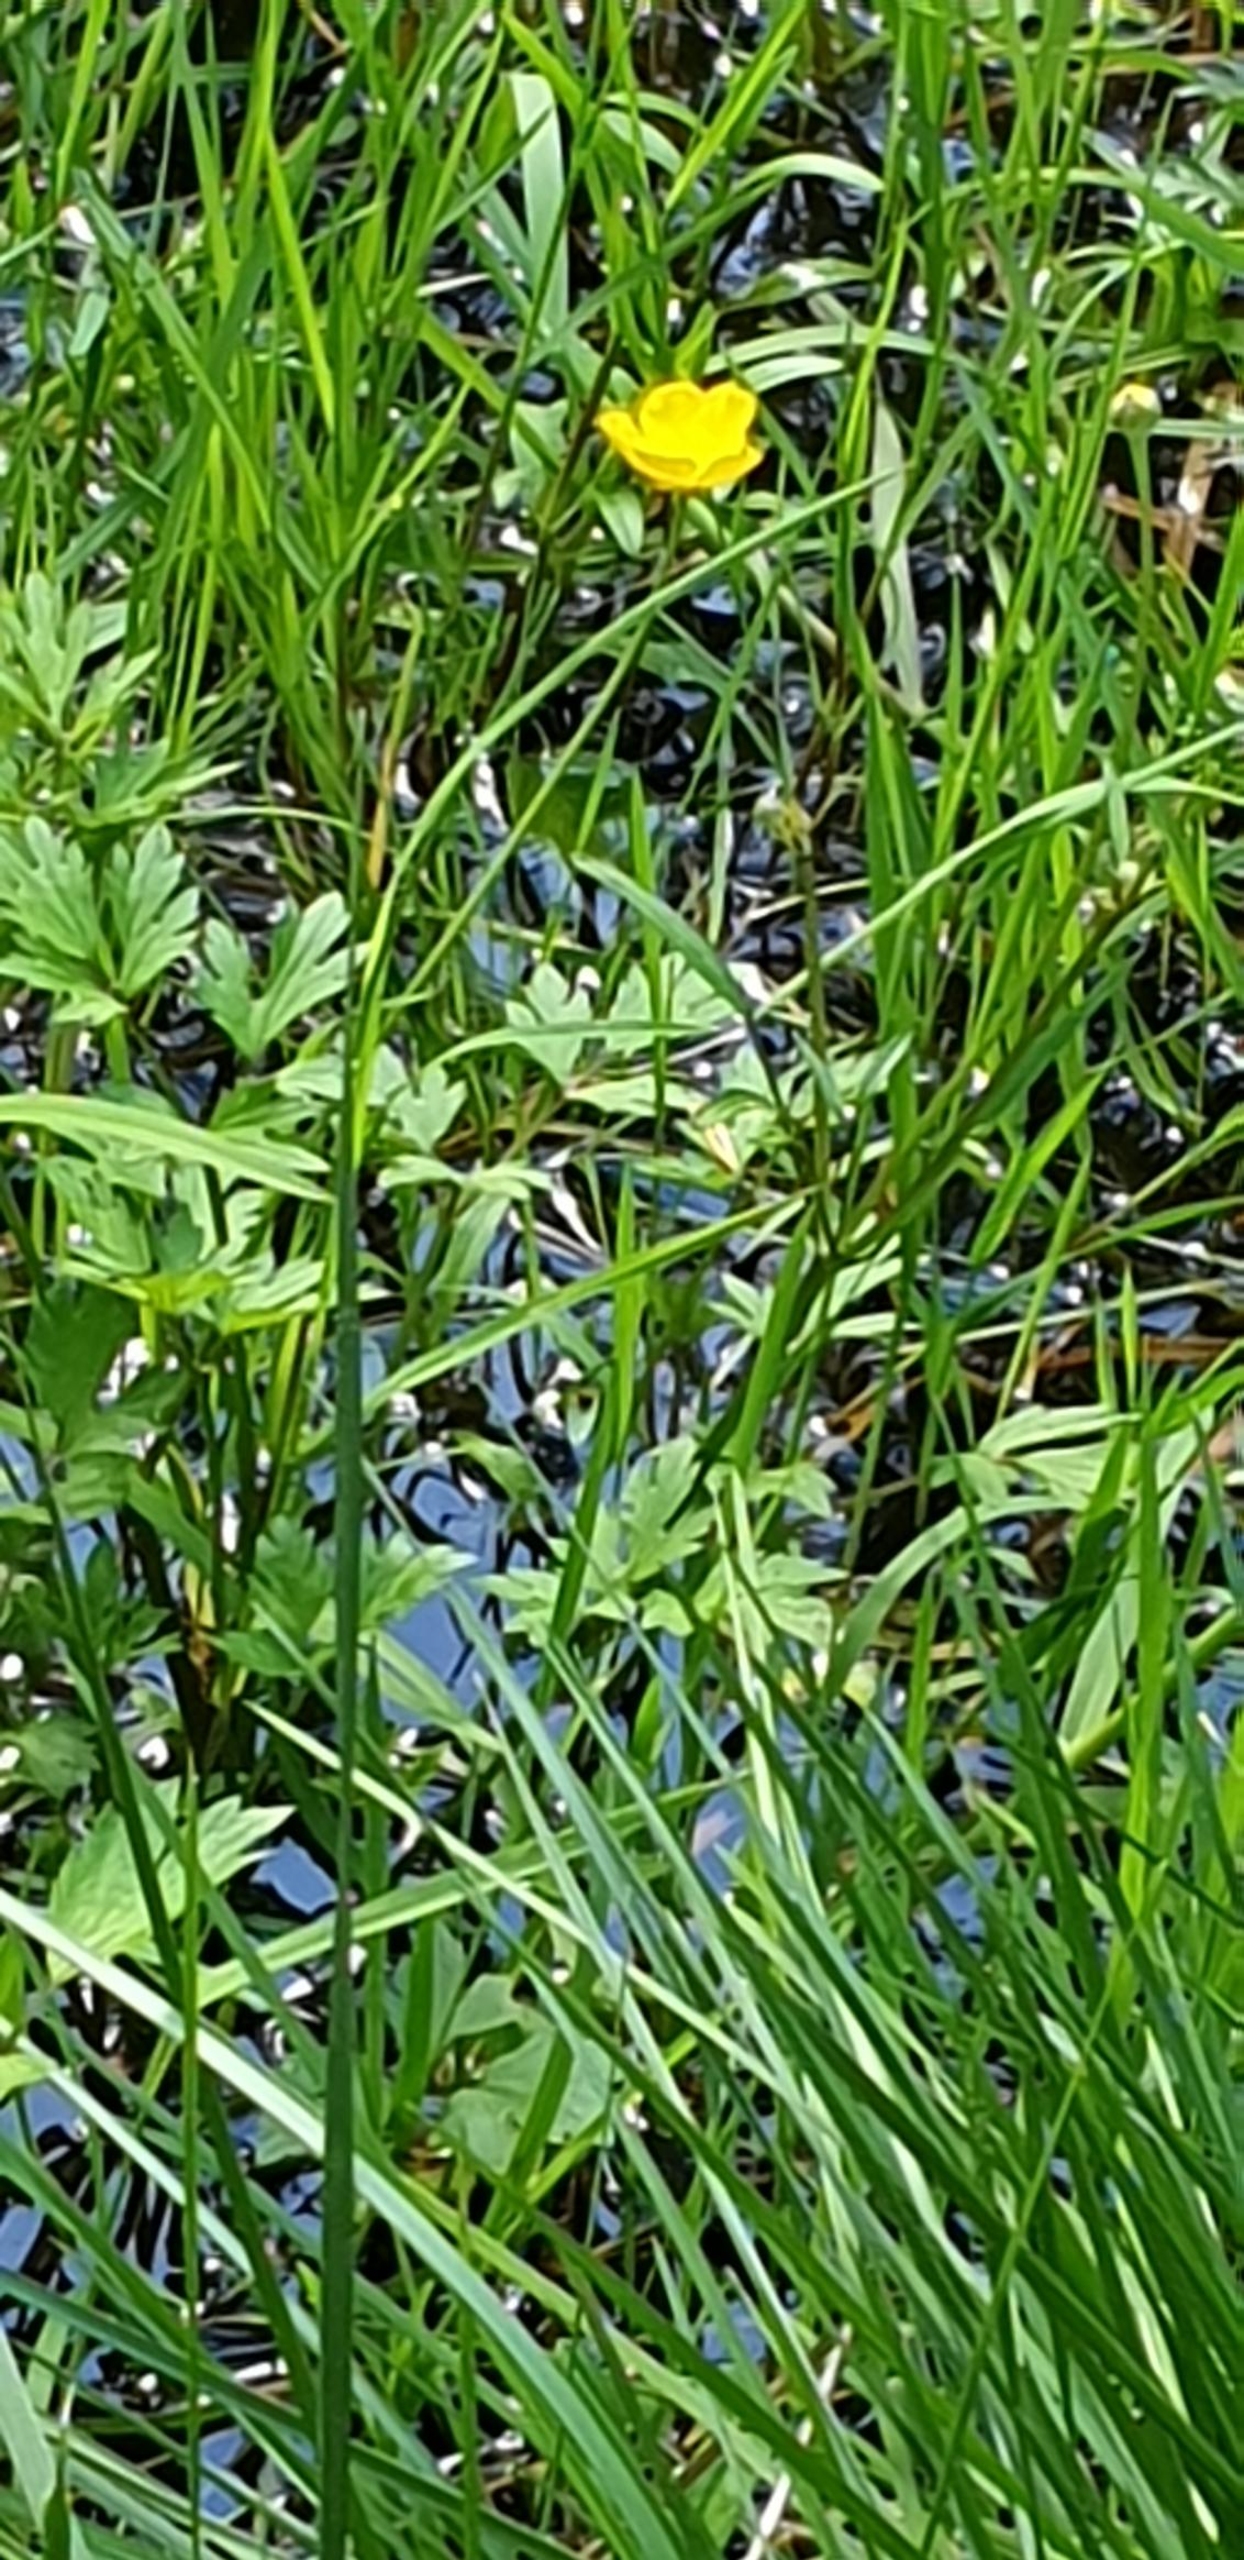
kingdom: Plantae
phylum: Tracheophyta
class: Magnoliopsida
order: Ranunculales
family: Ranunculaceae
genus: Ranunculus
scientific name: Ranunculus repens
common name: Lav ranunkel
